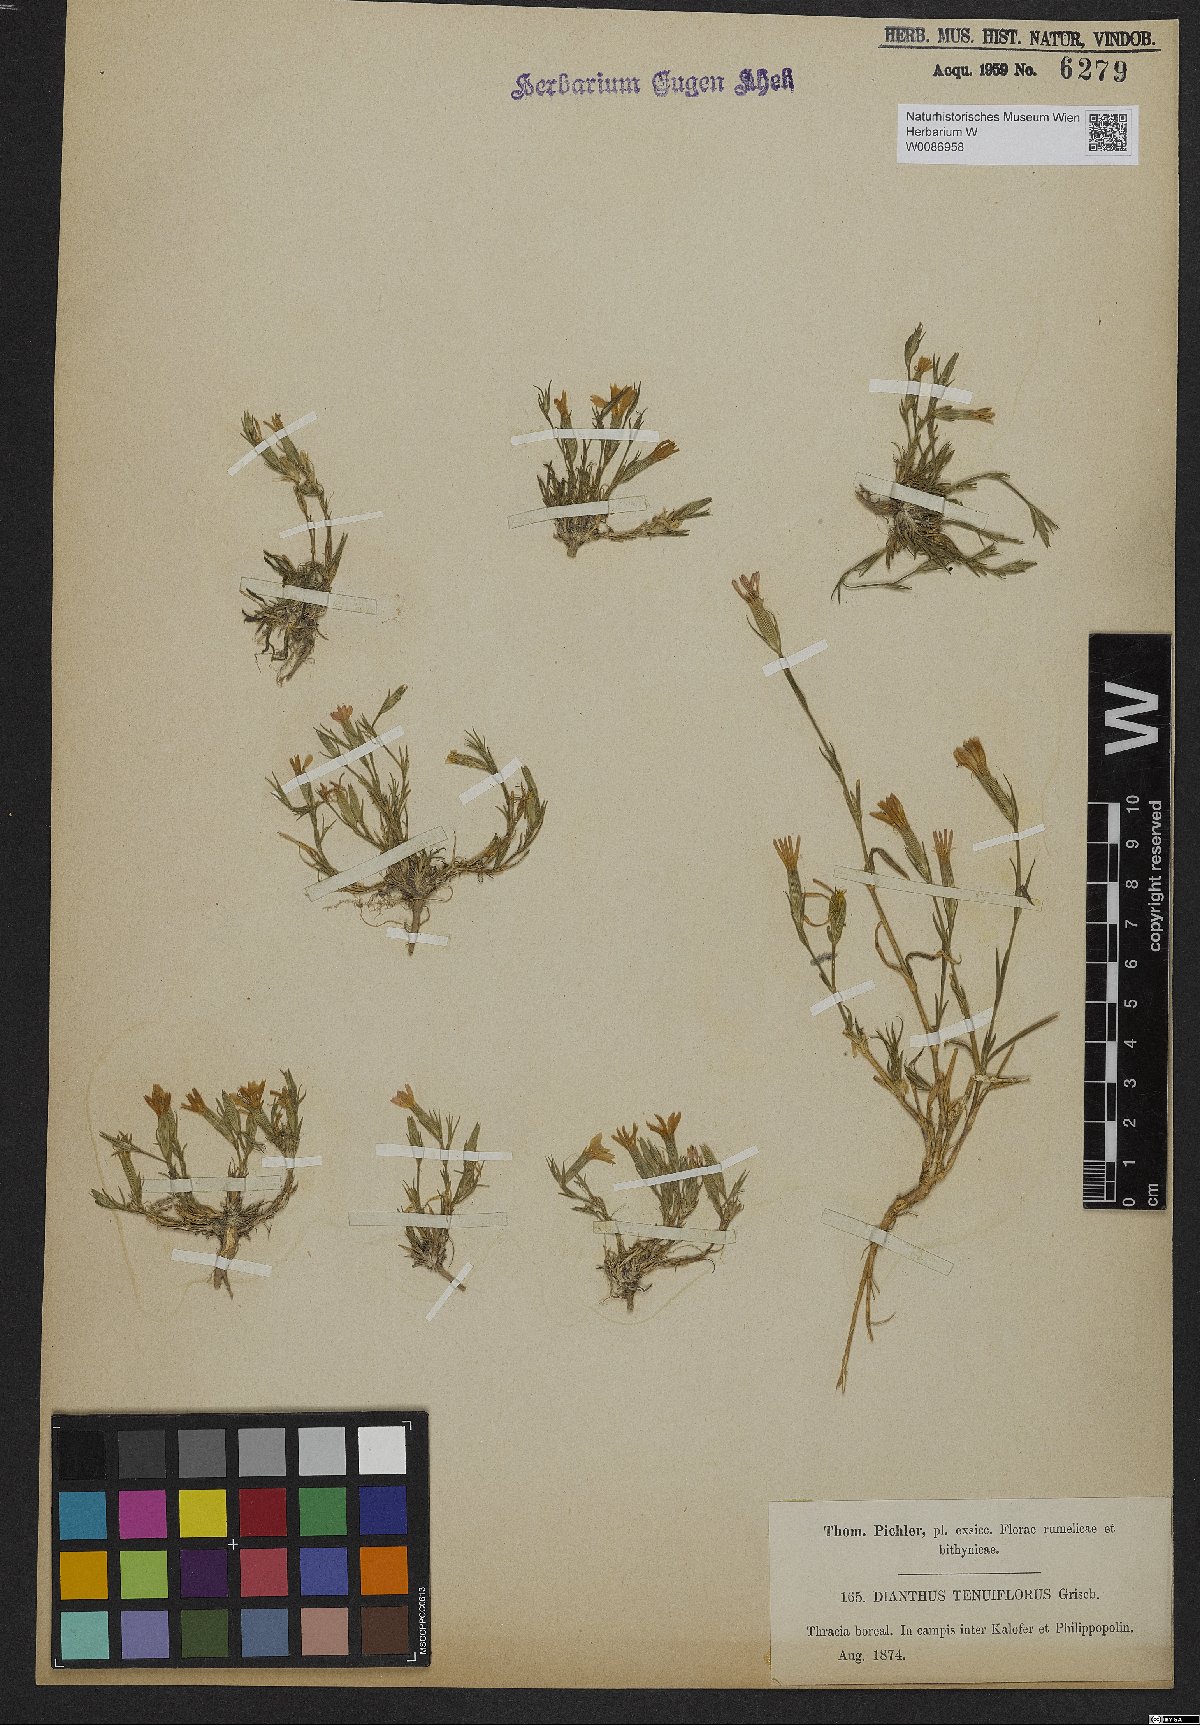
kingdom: Plantae
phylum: Tracheophyta
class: Magnoliopsida
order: Caryophyllales
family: Caryophyllaceae
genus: Dianthus
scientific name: Dianthus tenuiflorus
